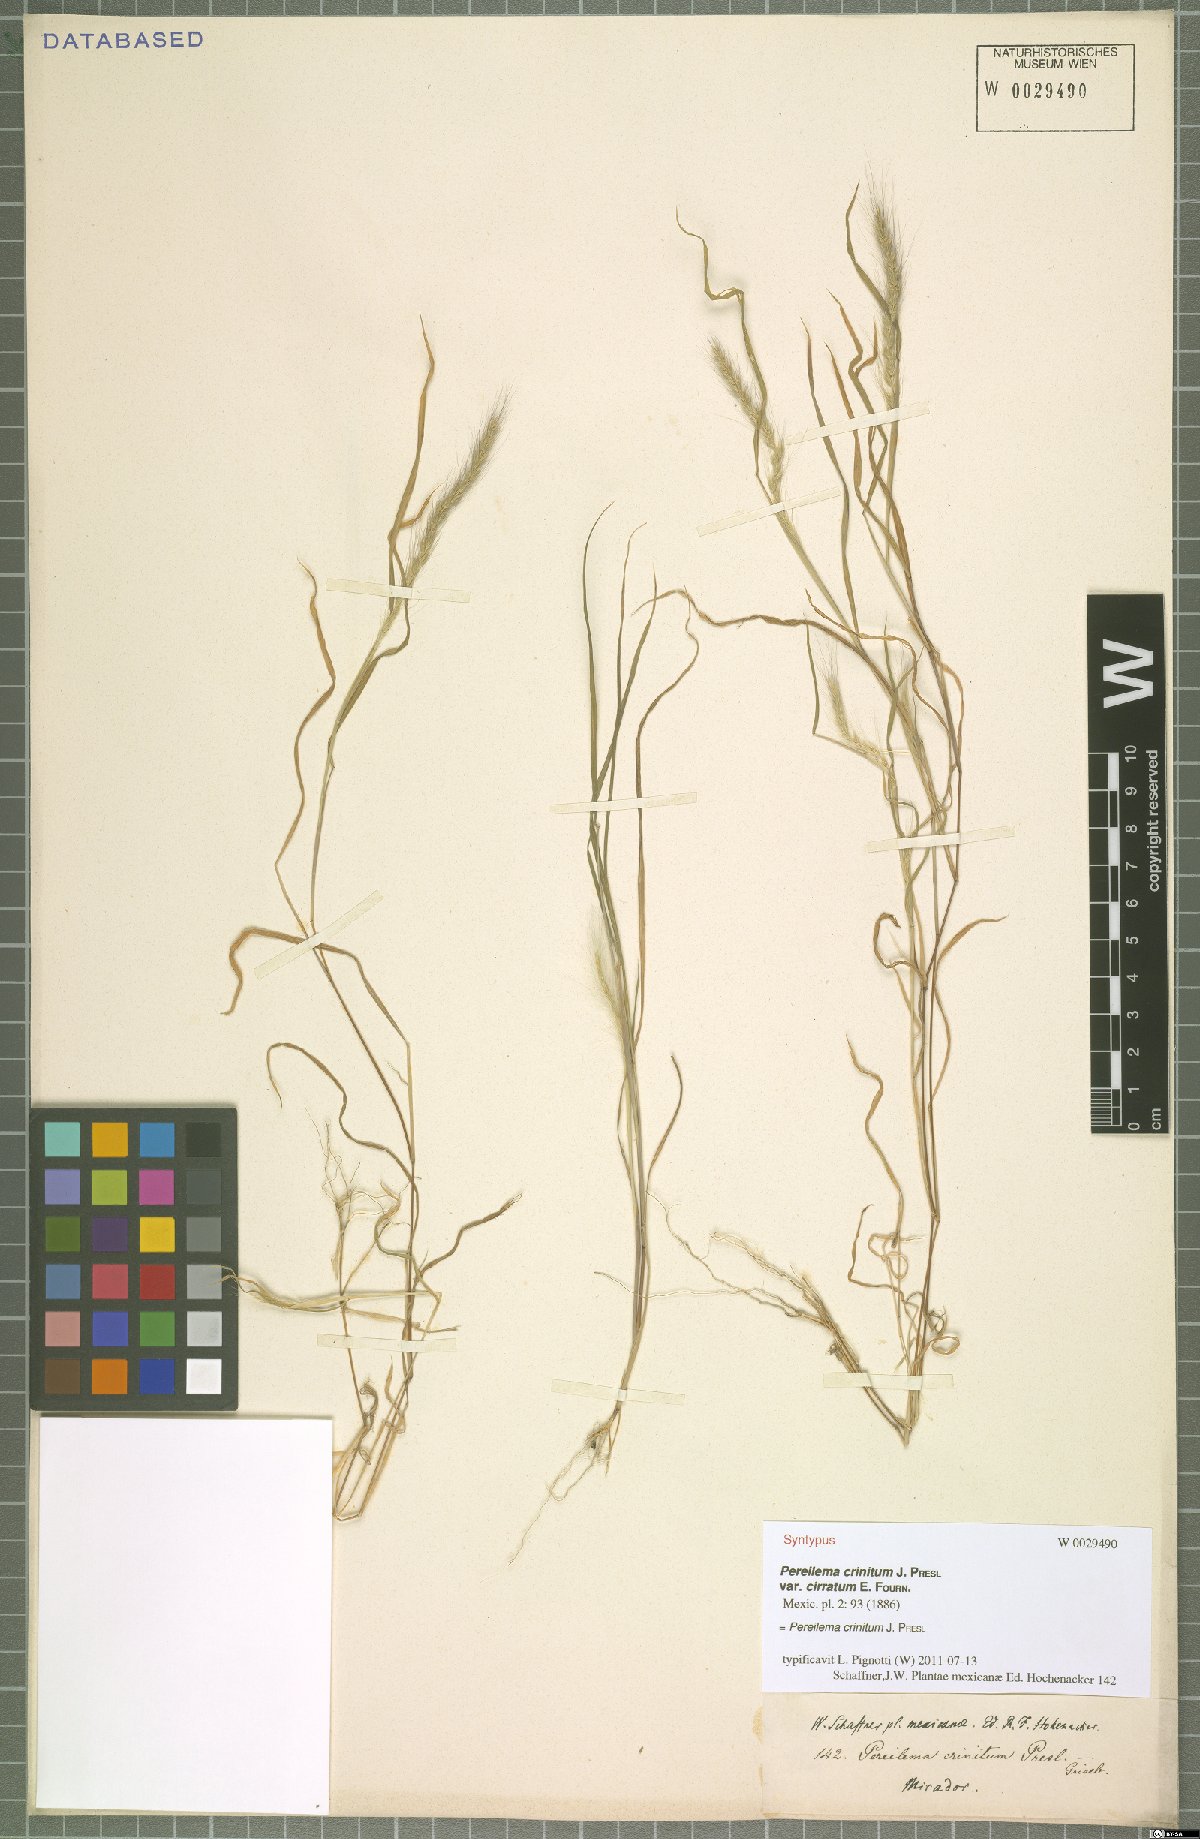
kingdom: Plantae
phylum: Tracheophyta
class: Liliopsida
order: Poales
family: Poaceae
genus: Muhlenbergia
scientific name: Muhlenbergia pereilema
